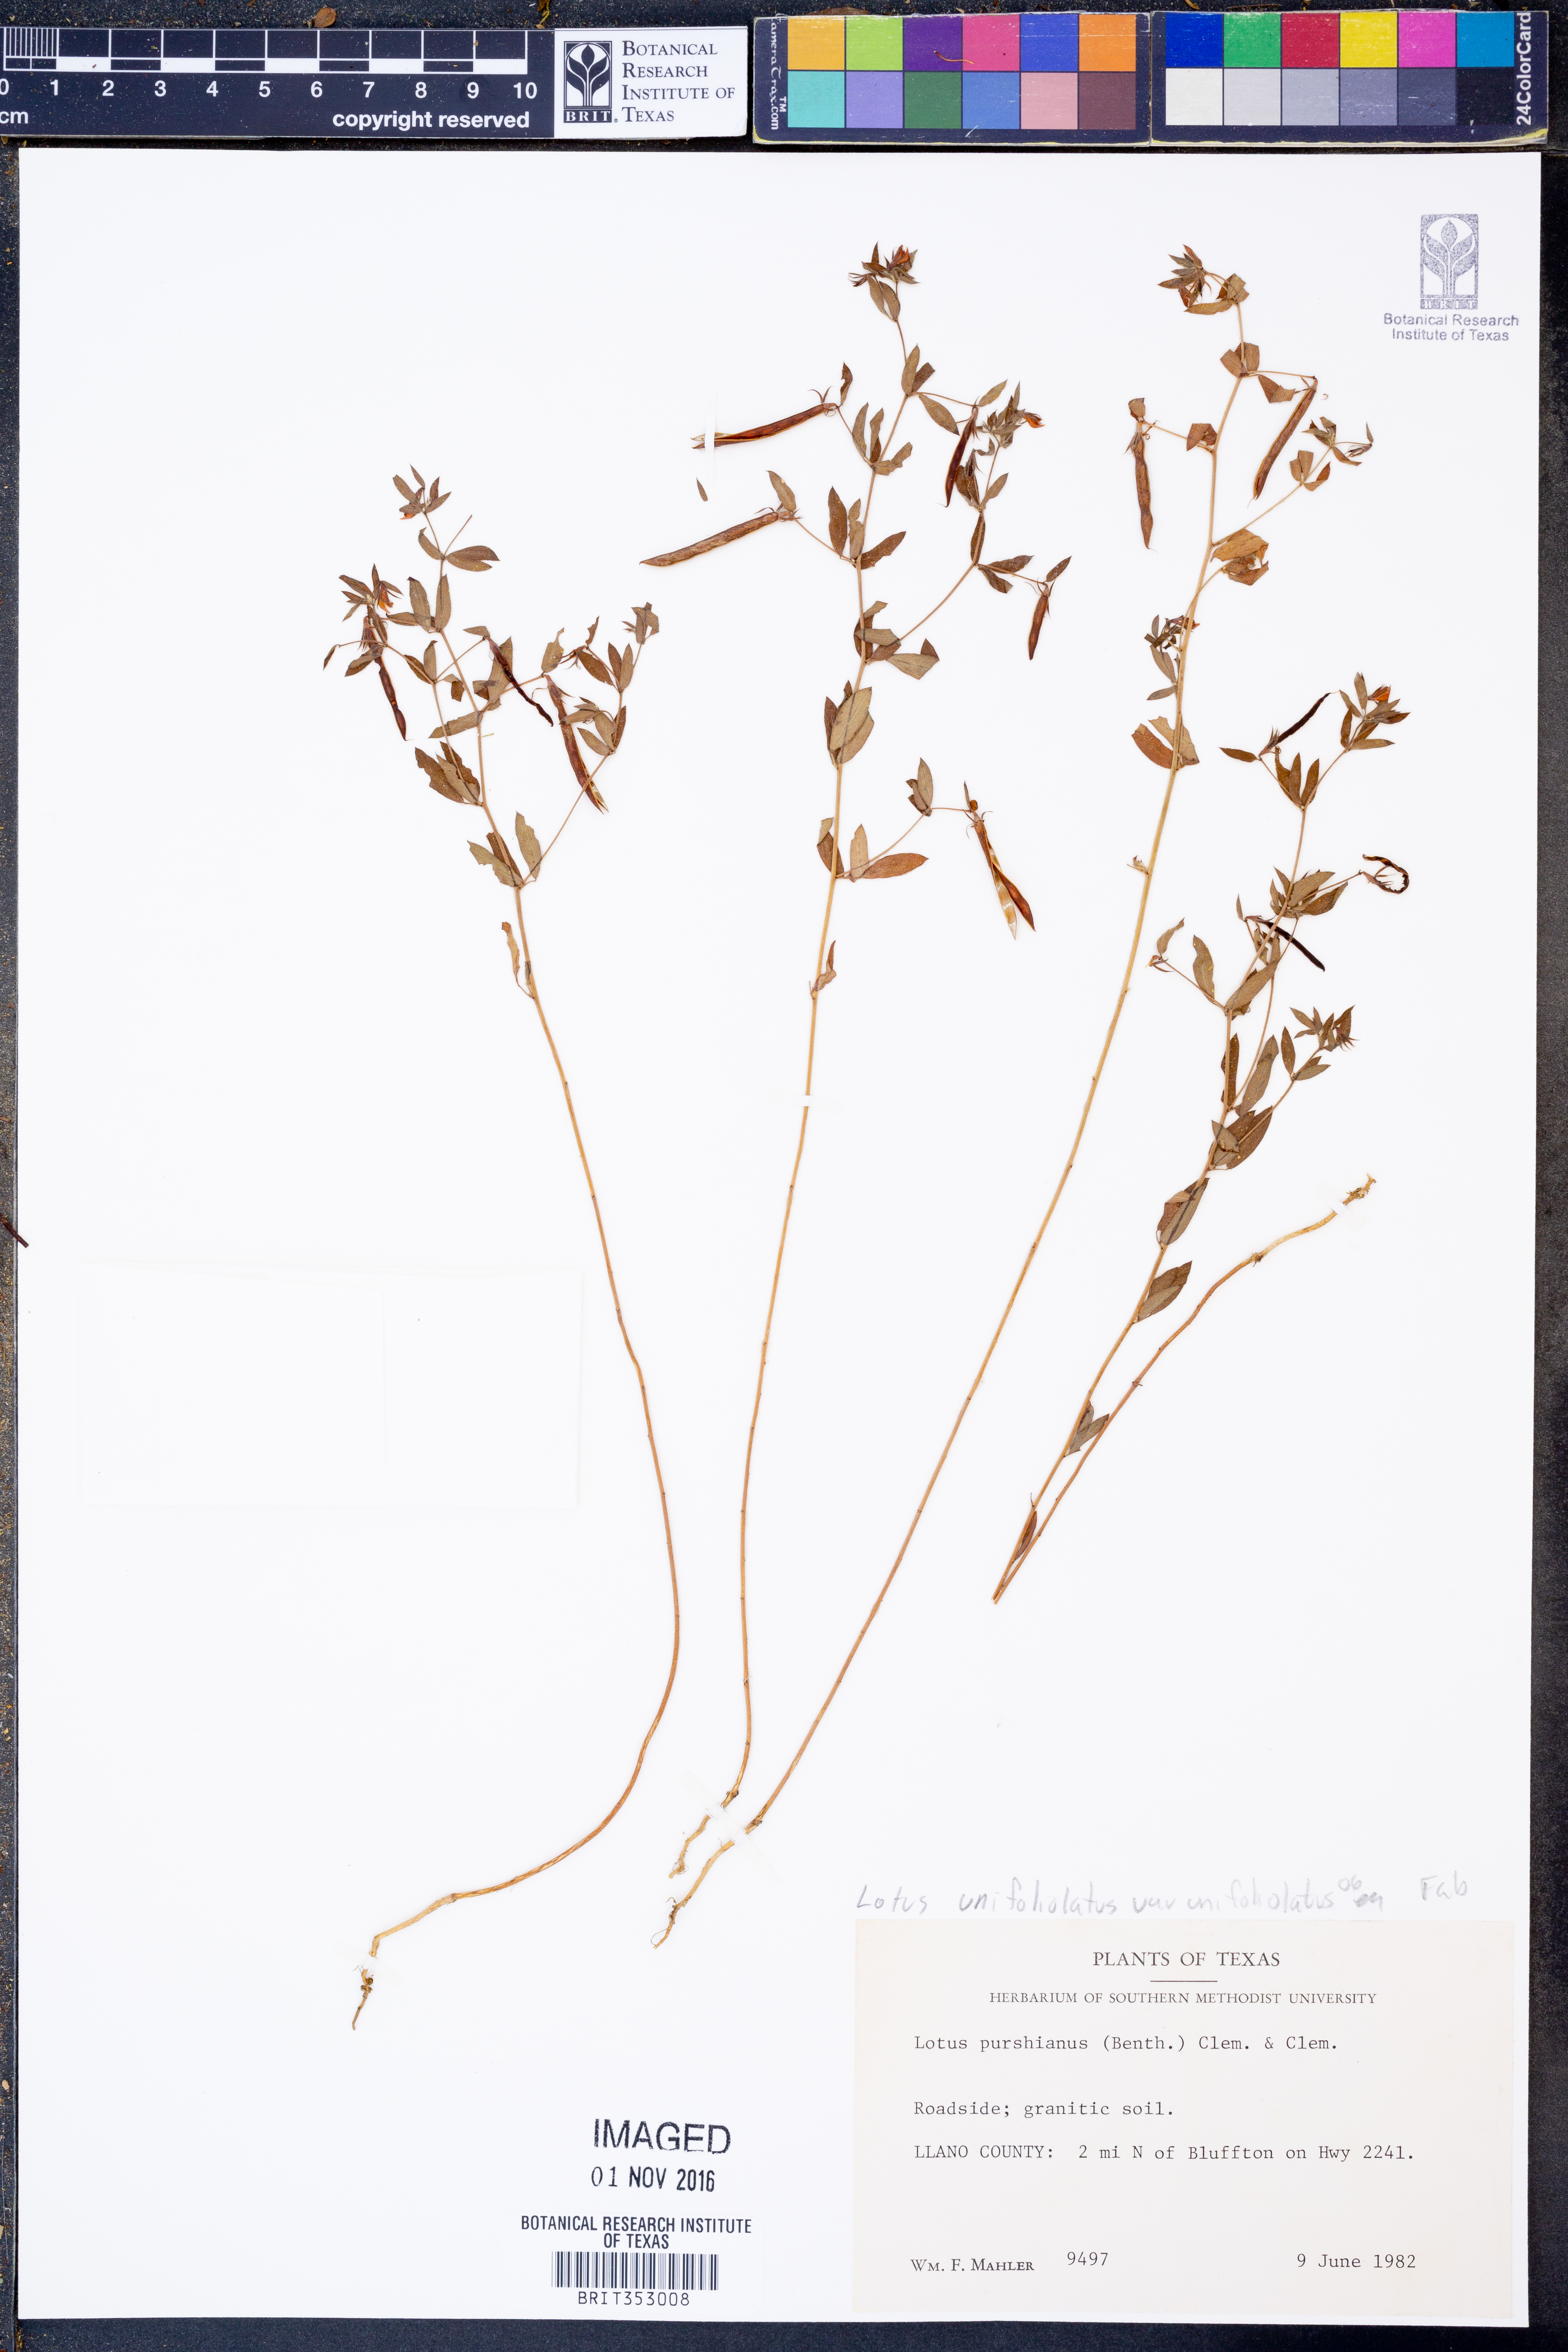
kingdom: Plantae
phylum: Tracheophyta
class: Magnoliopsida
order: Fabales
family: Fabaceae
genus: Lotus
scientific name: Lotus unifoliatus
